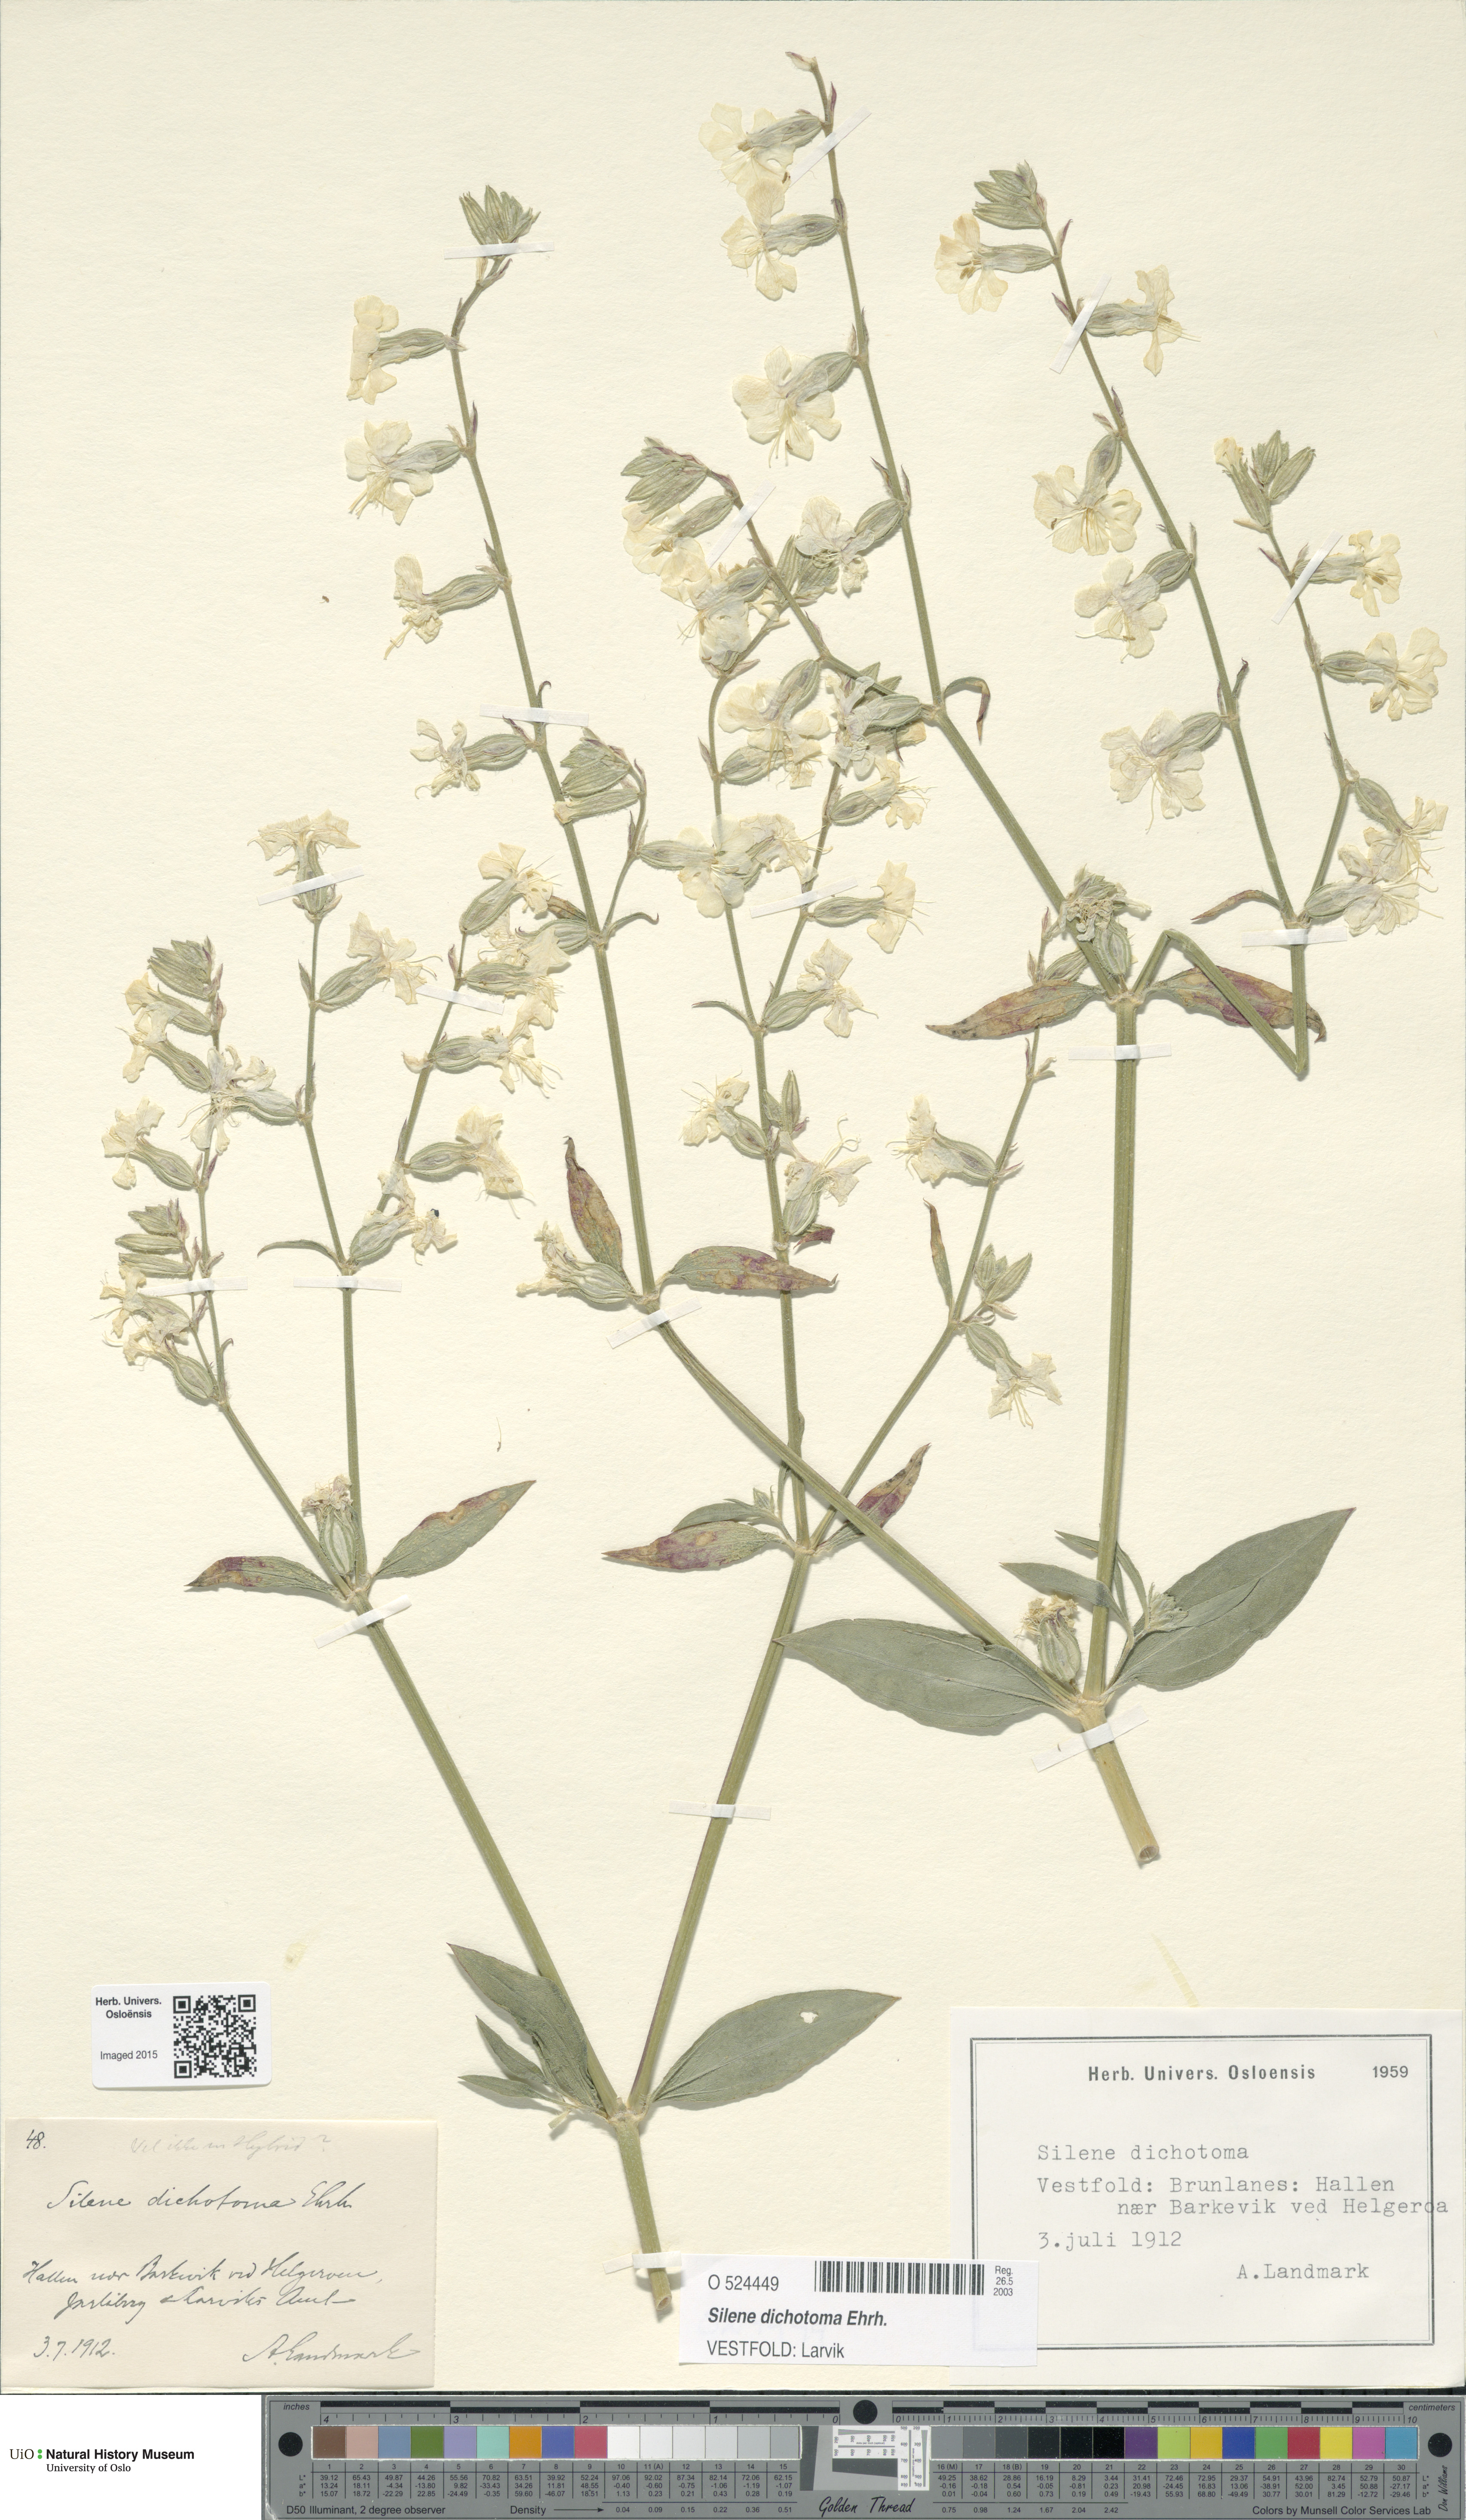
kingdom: Plantae
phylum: Tracheophyta
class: Magnoliopsida
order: Caryophyllales
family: Caryophyllaceae
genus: Silene
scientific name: Silene dichotoma
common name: Forked catchfly
